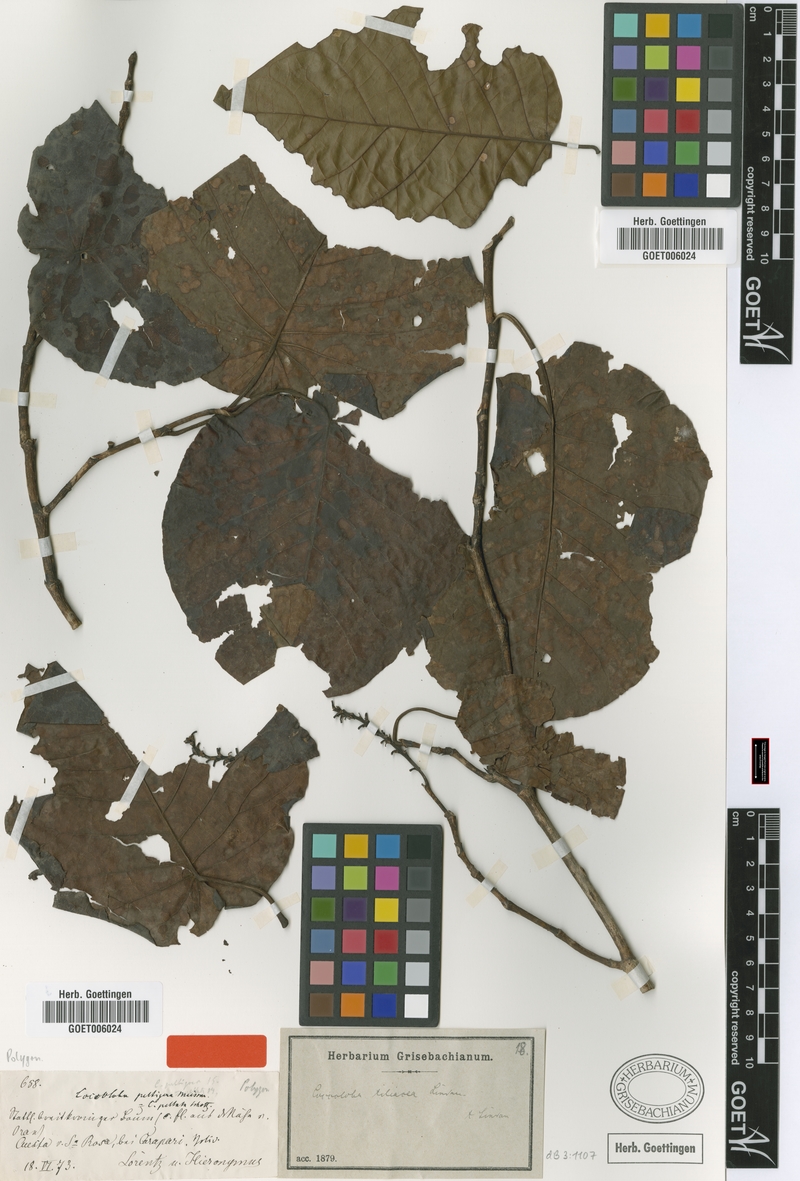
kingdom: Plantae
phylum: Tracheophyta
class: Magnoliopsida
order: Caryophyllales
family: Polygonaceae
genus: Coccoloba
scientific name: Coccoloba tiliacea
